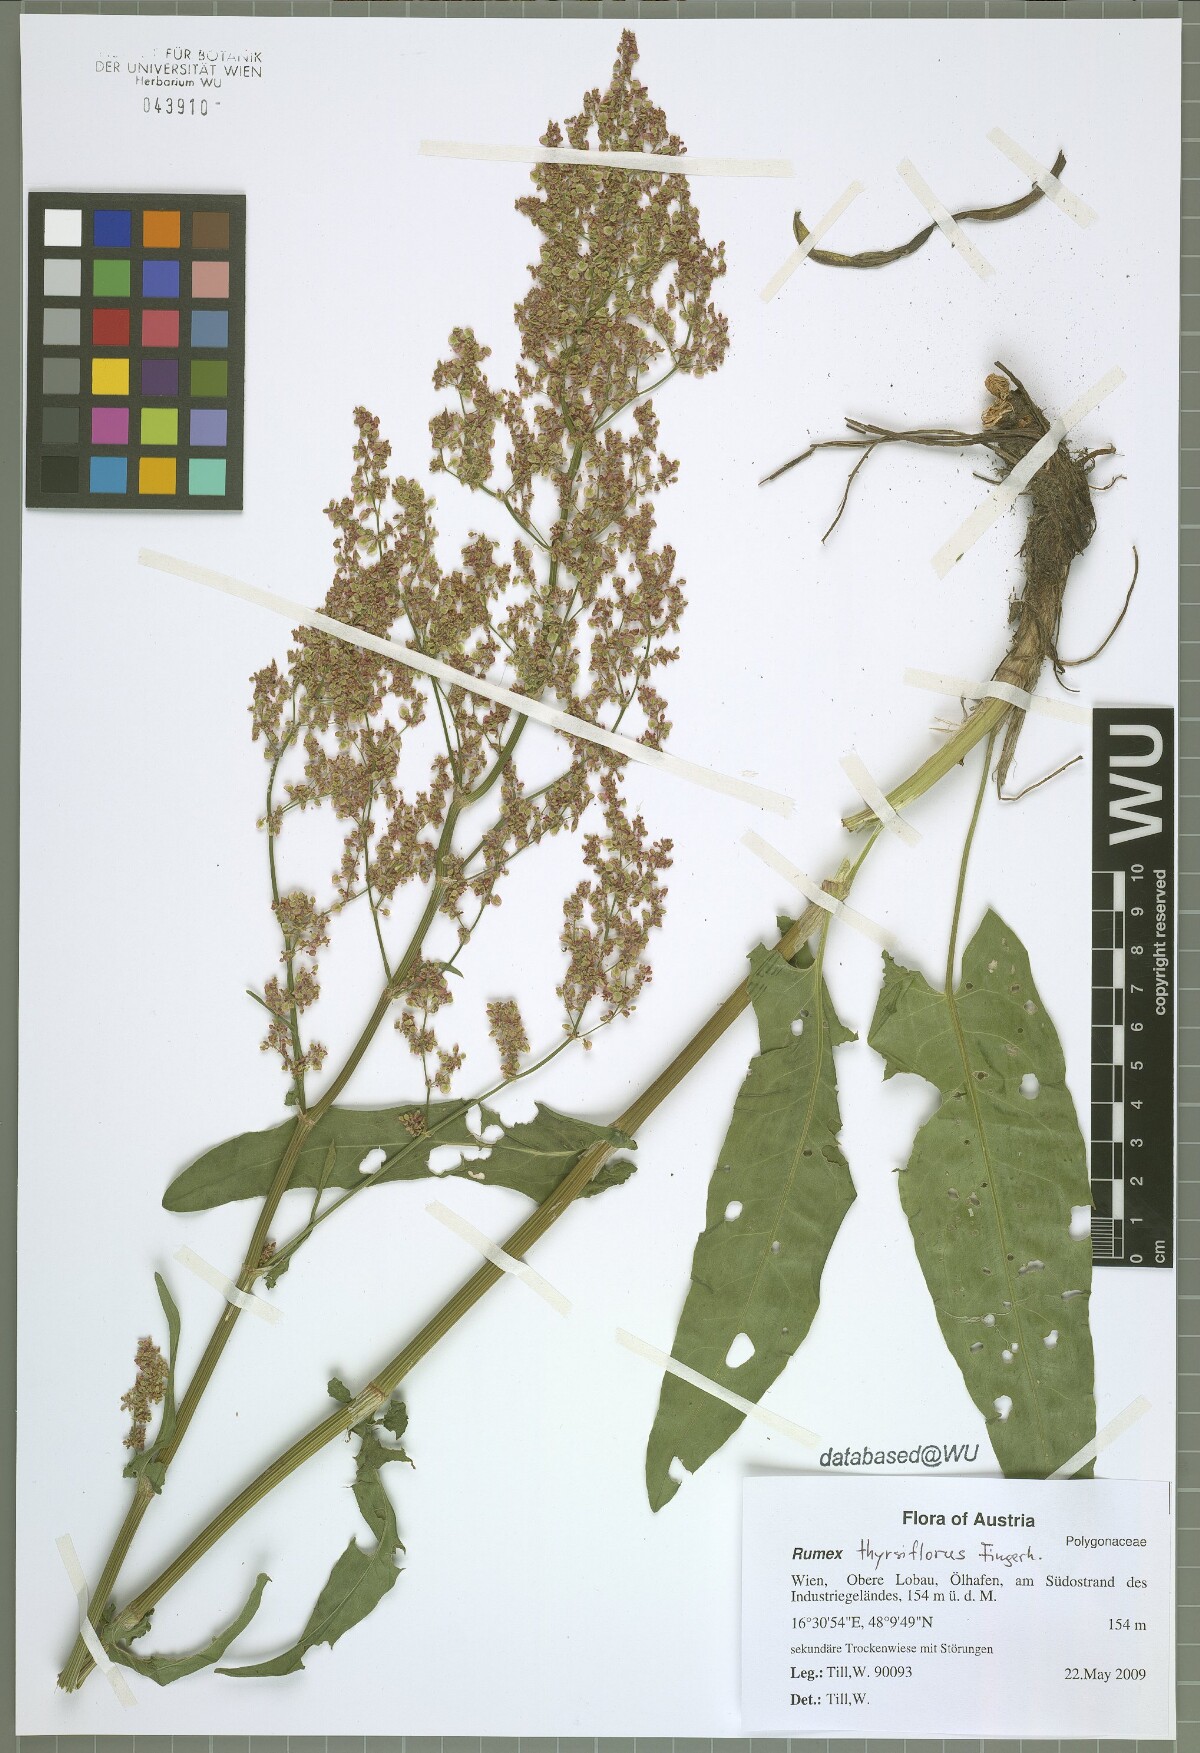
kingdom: Plantae
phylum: Tracheophyta
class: Magnoliopsida
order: Caryophyllales
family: Polygonaceae
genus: Rumex
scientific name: Rumex thyrsiflorus
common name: Garden sorrel
